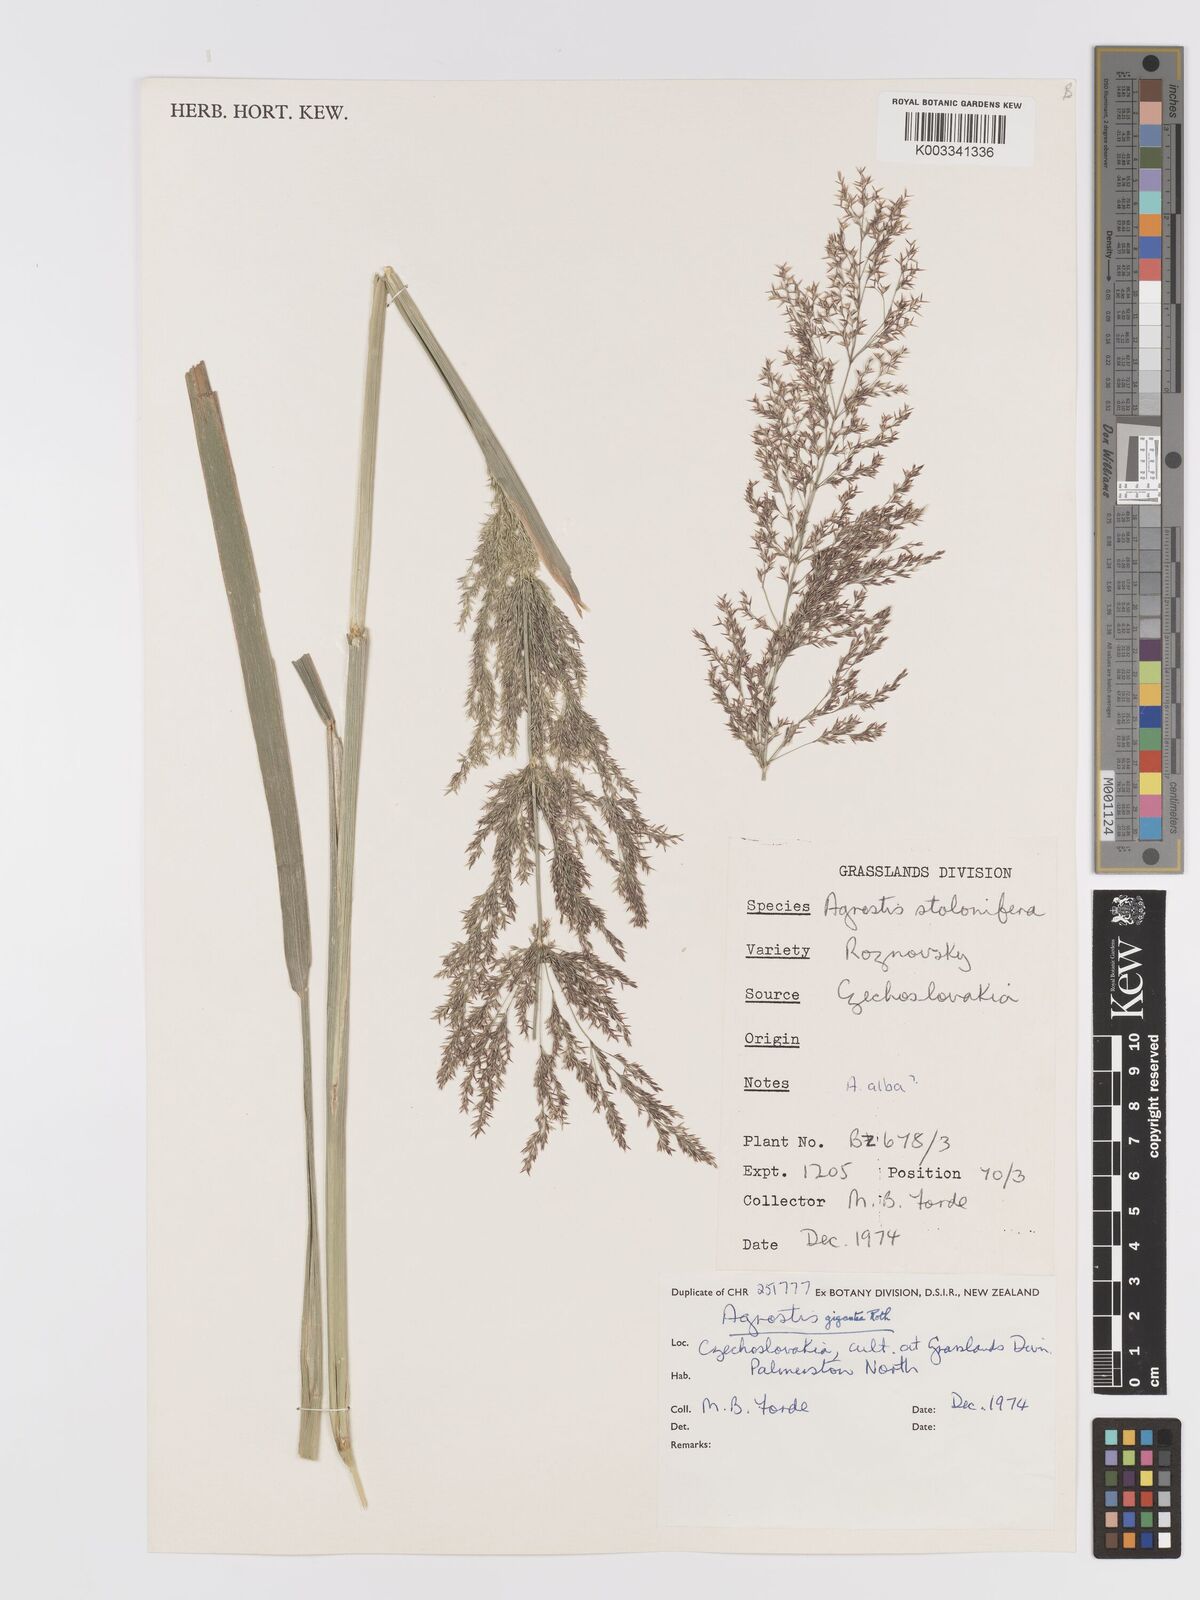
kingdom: Plantae
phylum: Tracheophyta
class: Liliopsida
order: Poales
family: Poaceae
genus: Agrostis
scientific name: Agrostis gigantea
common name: Black bent
